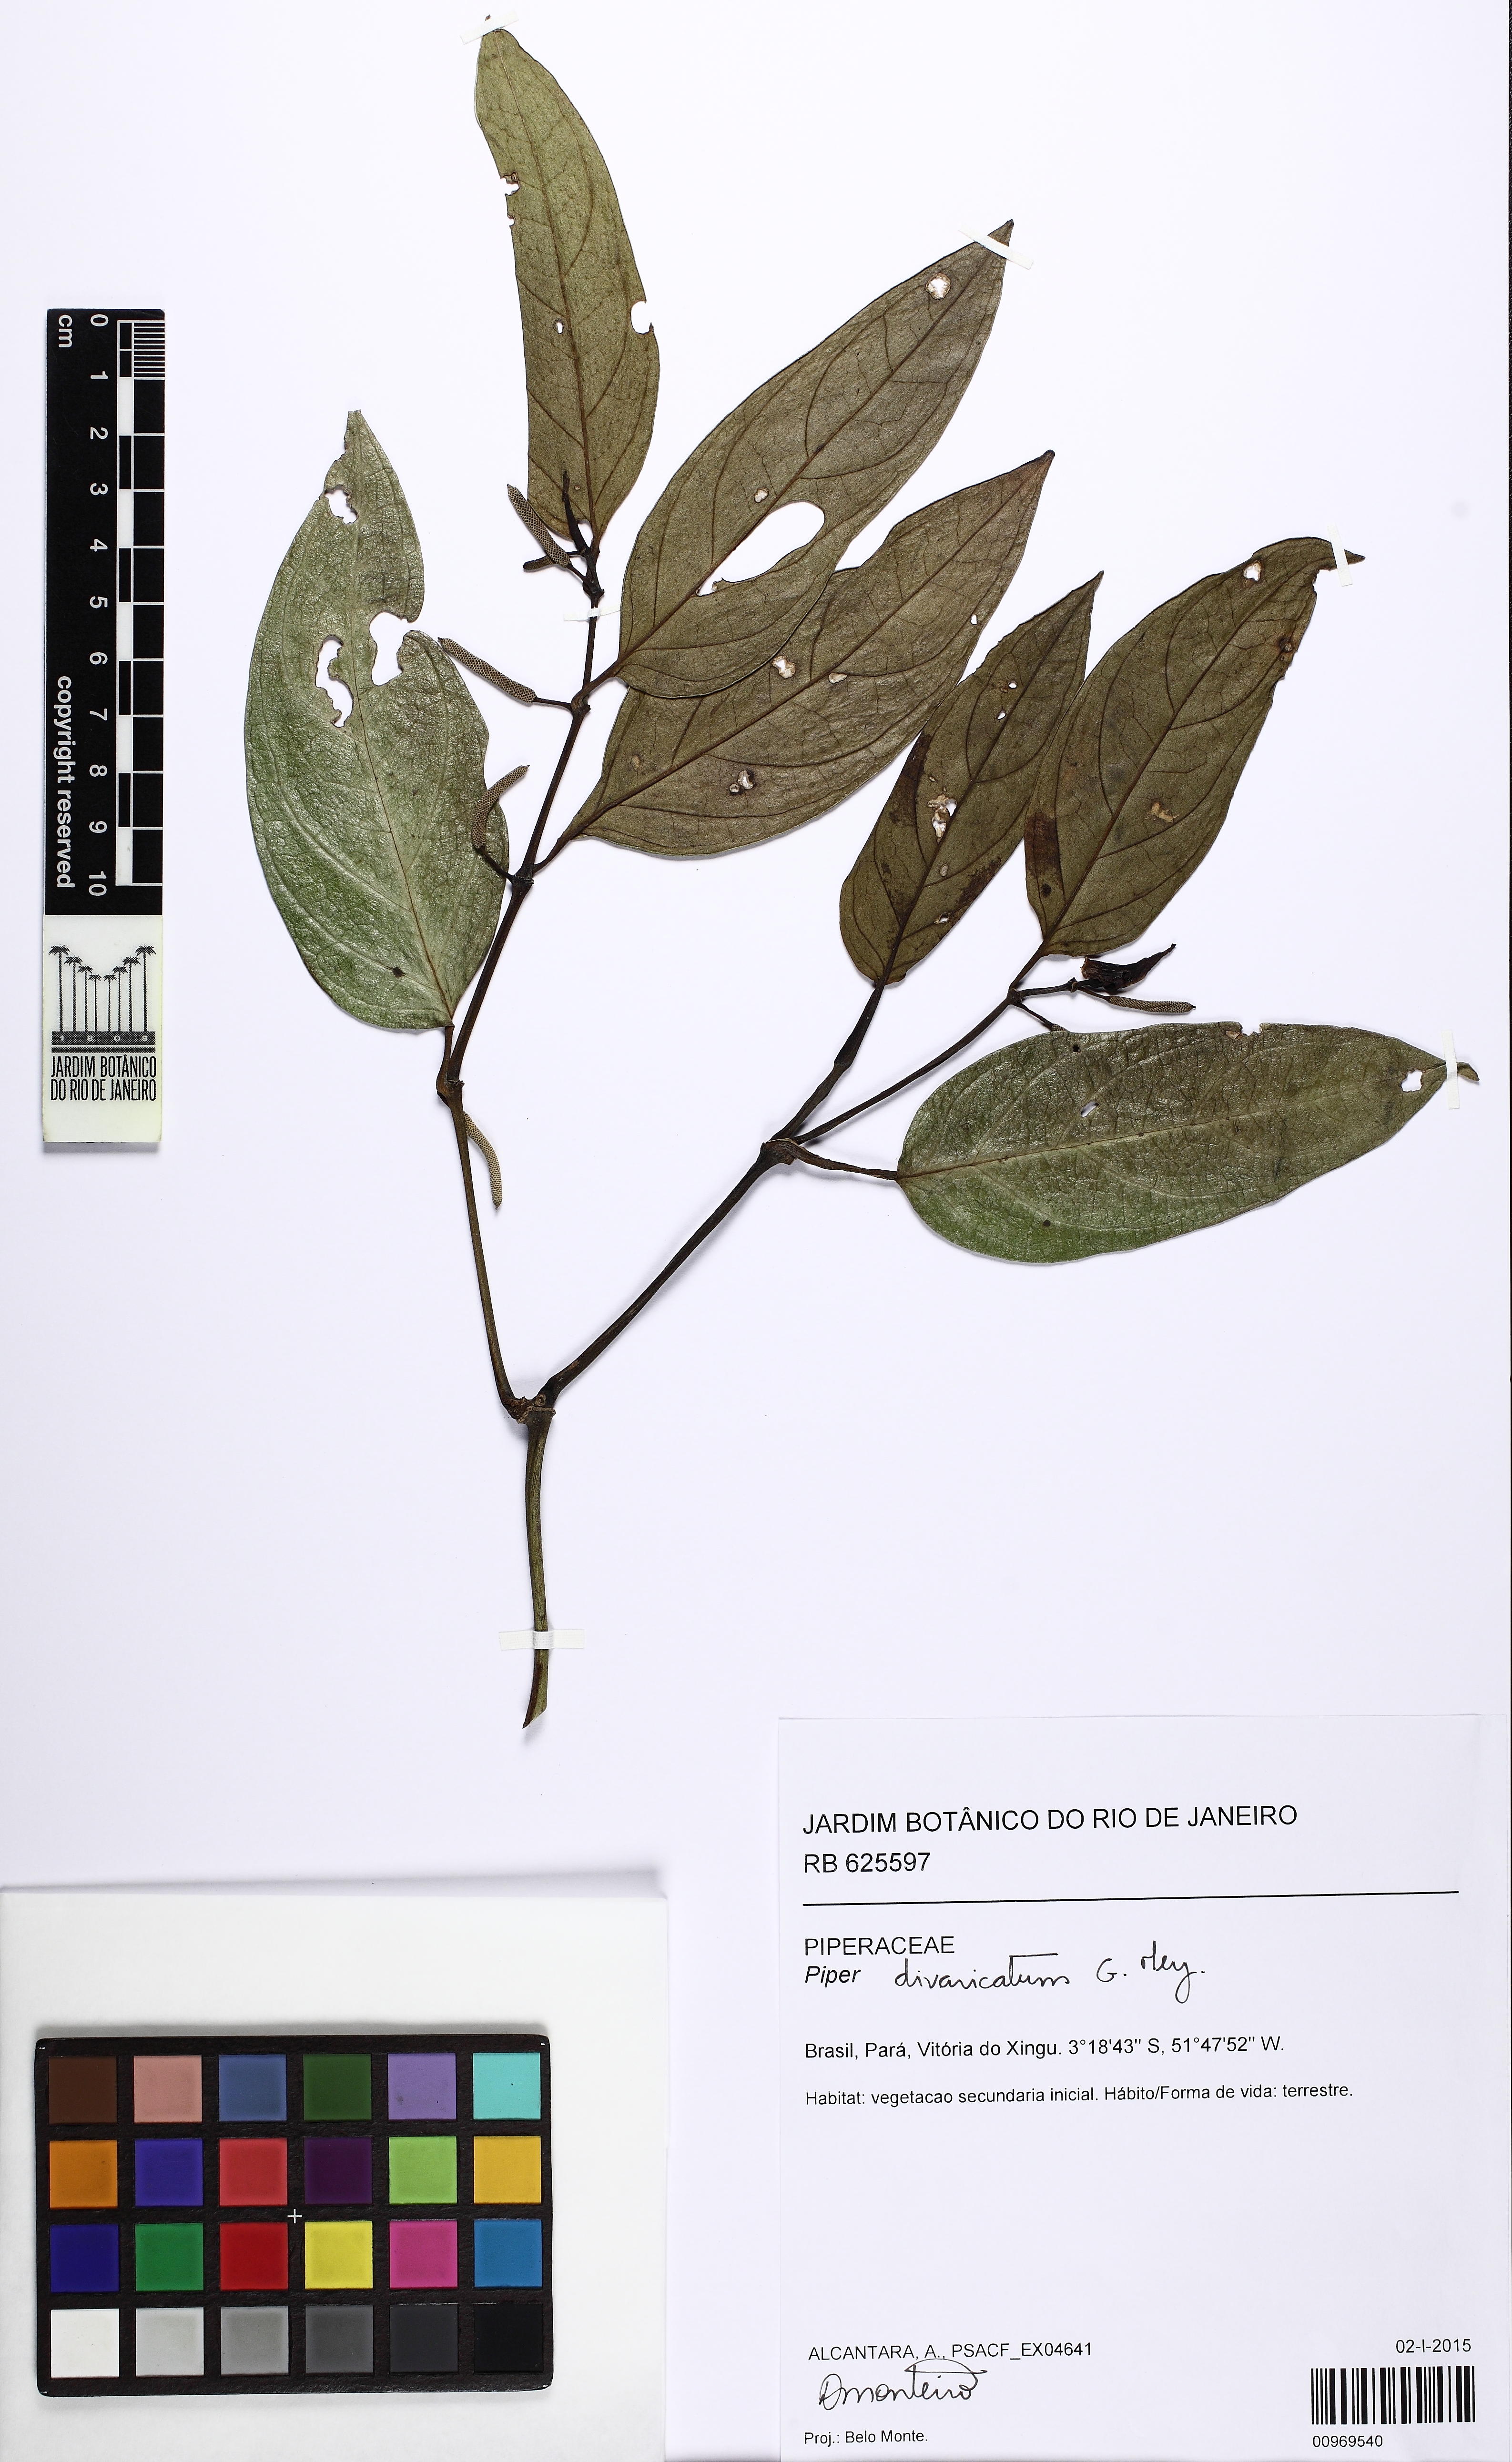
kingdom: Plantae
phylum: Tracheophyta
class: Magnoliopsida
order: Piperales
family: Piperaceae
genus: Piper
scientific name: Piper divaricatum
